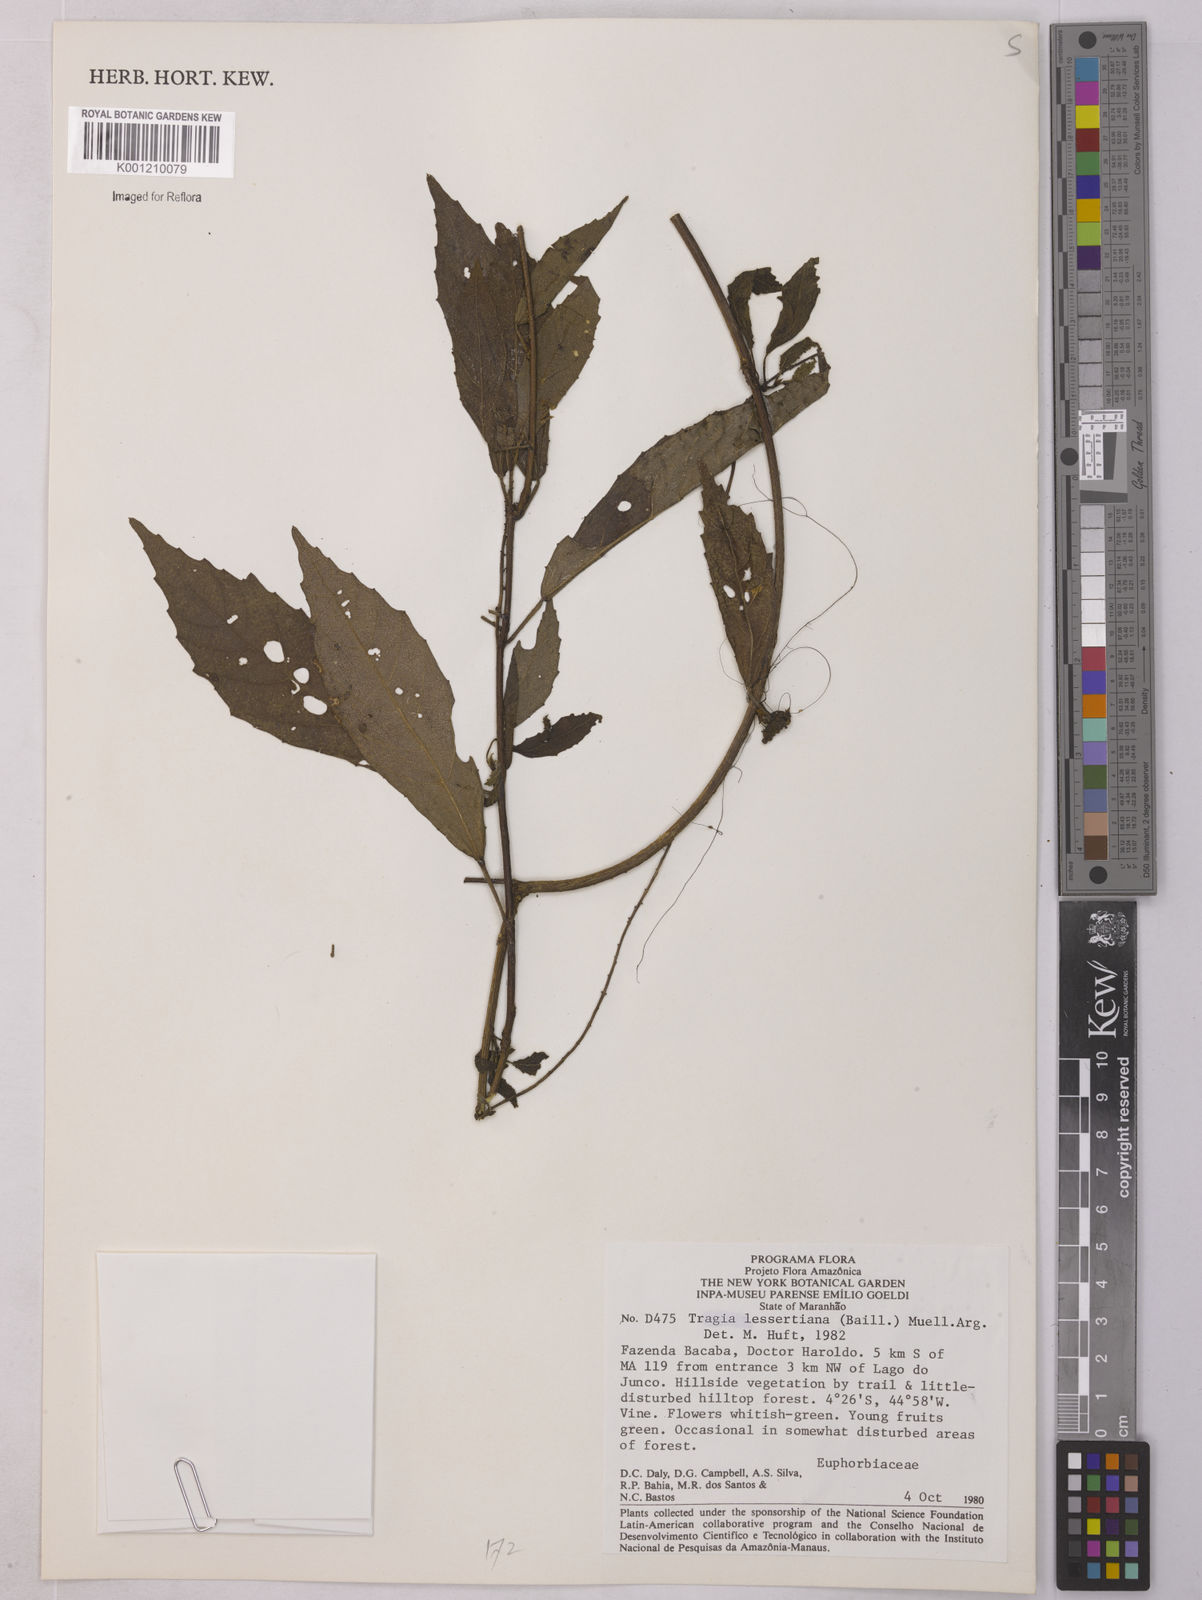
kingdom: Plantae
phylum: Tracheophyta
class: Magnoliopsida
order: Malpighiales
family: Euphorbiaceae
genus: Bia
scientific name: Bia lessertiana
